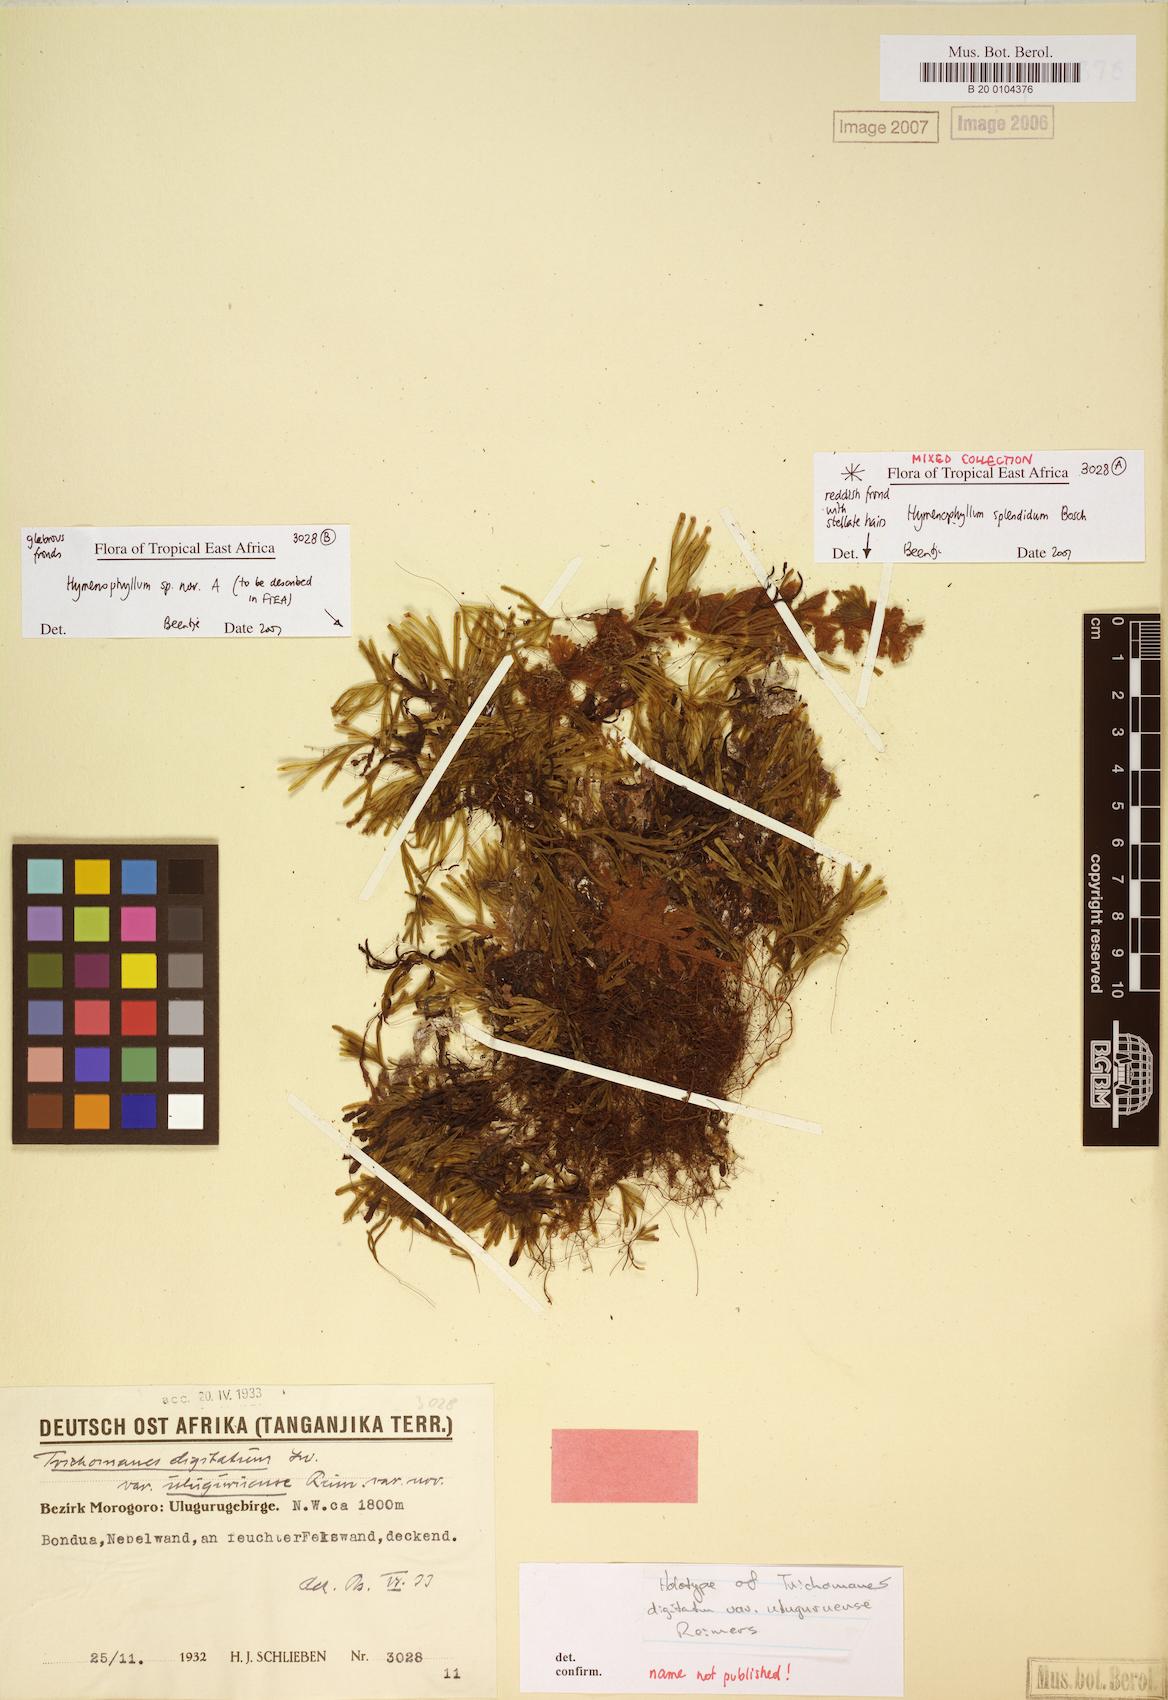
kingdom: Plantae
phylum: Tracheophyta
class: Polypodiopsida
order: Hymenophyllales
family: Hymenophyllaceae
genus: Hymenophyllum
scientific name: Hymenophyllum digitatum
